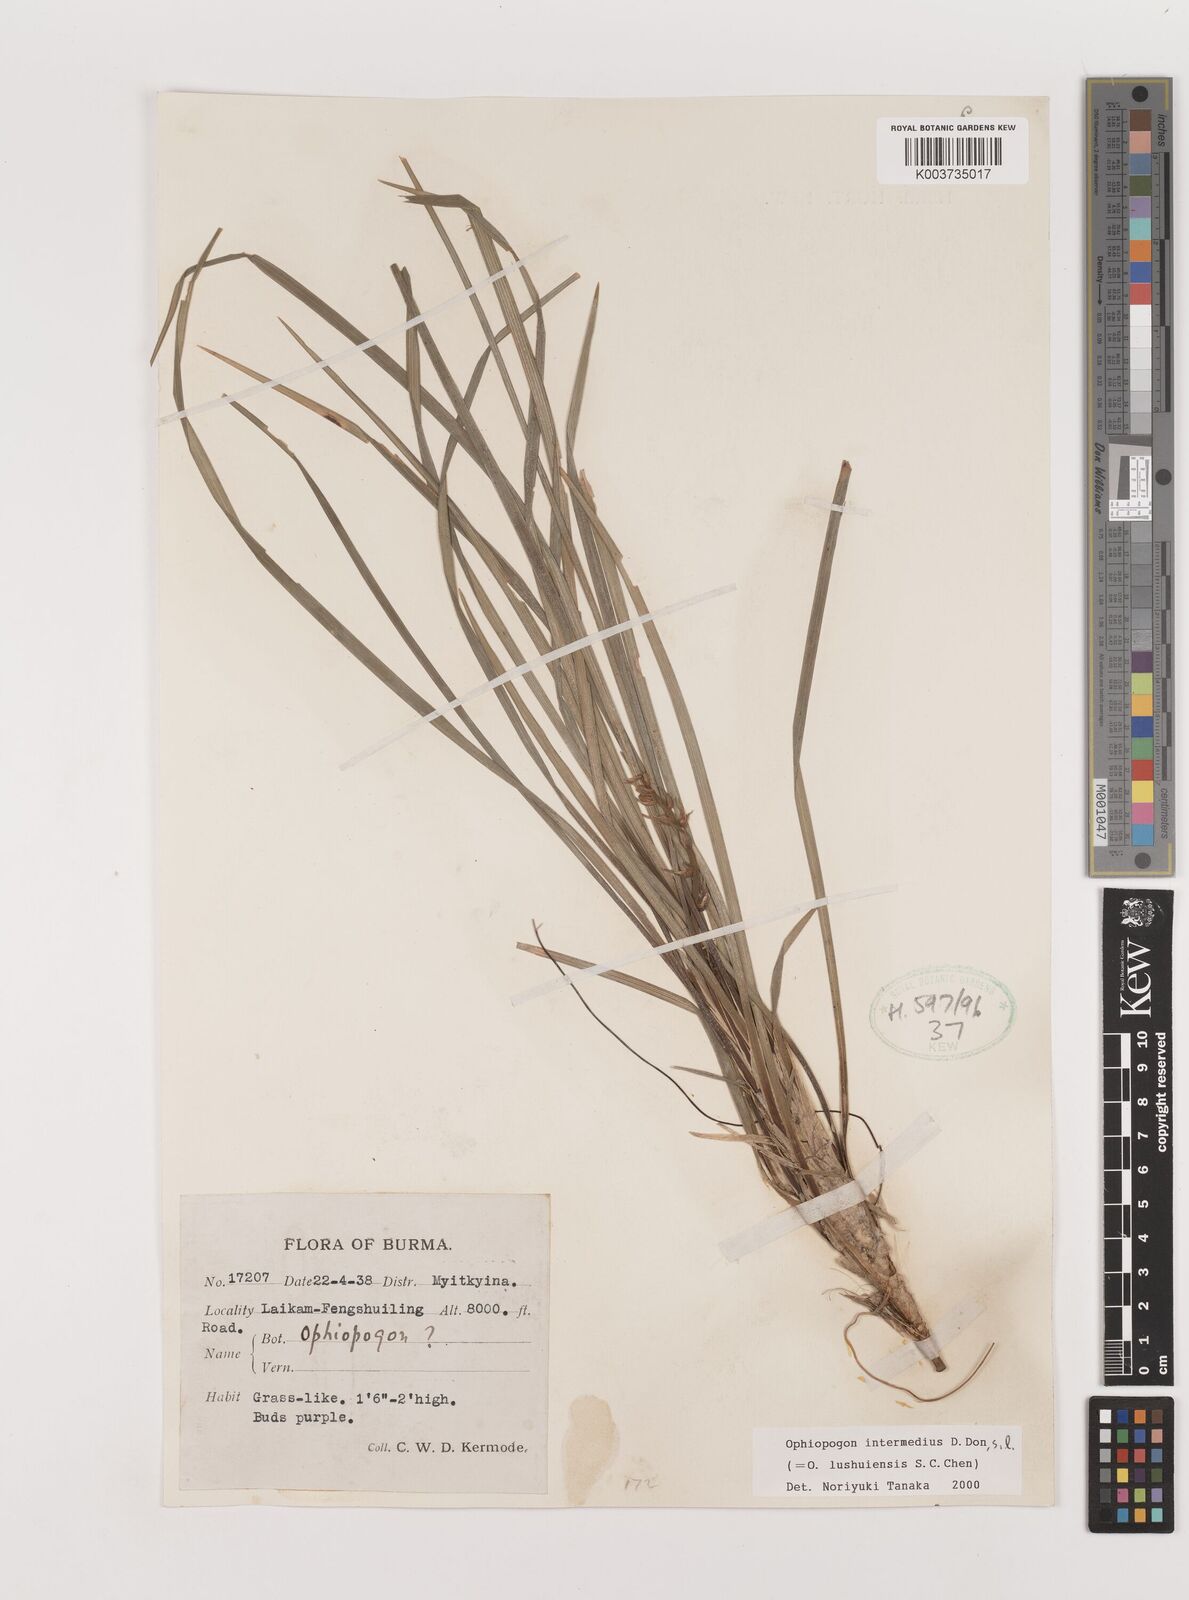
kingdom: Plantae
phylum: Tracheophyta
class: Liliopsida
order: Asparagales
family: Asparagaceae
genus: Ophiopogon
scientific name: Ophiopogon intermedius
